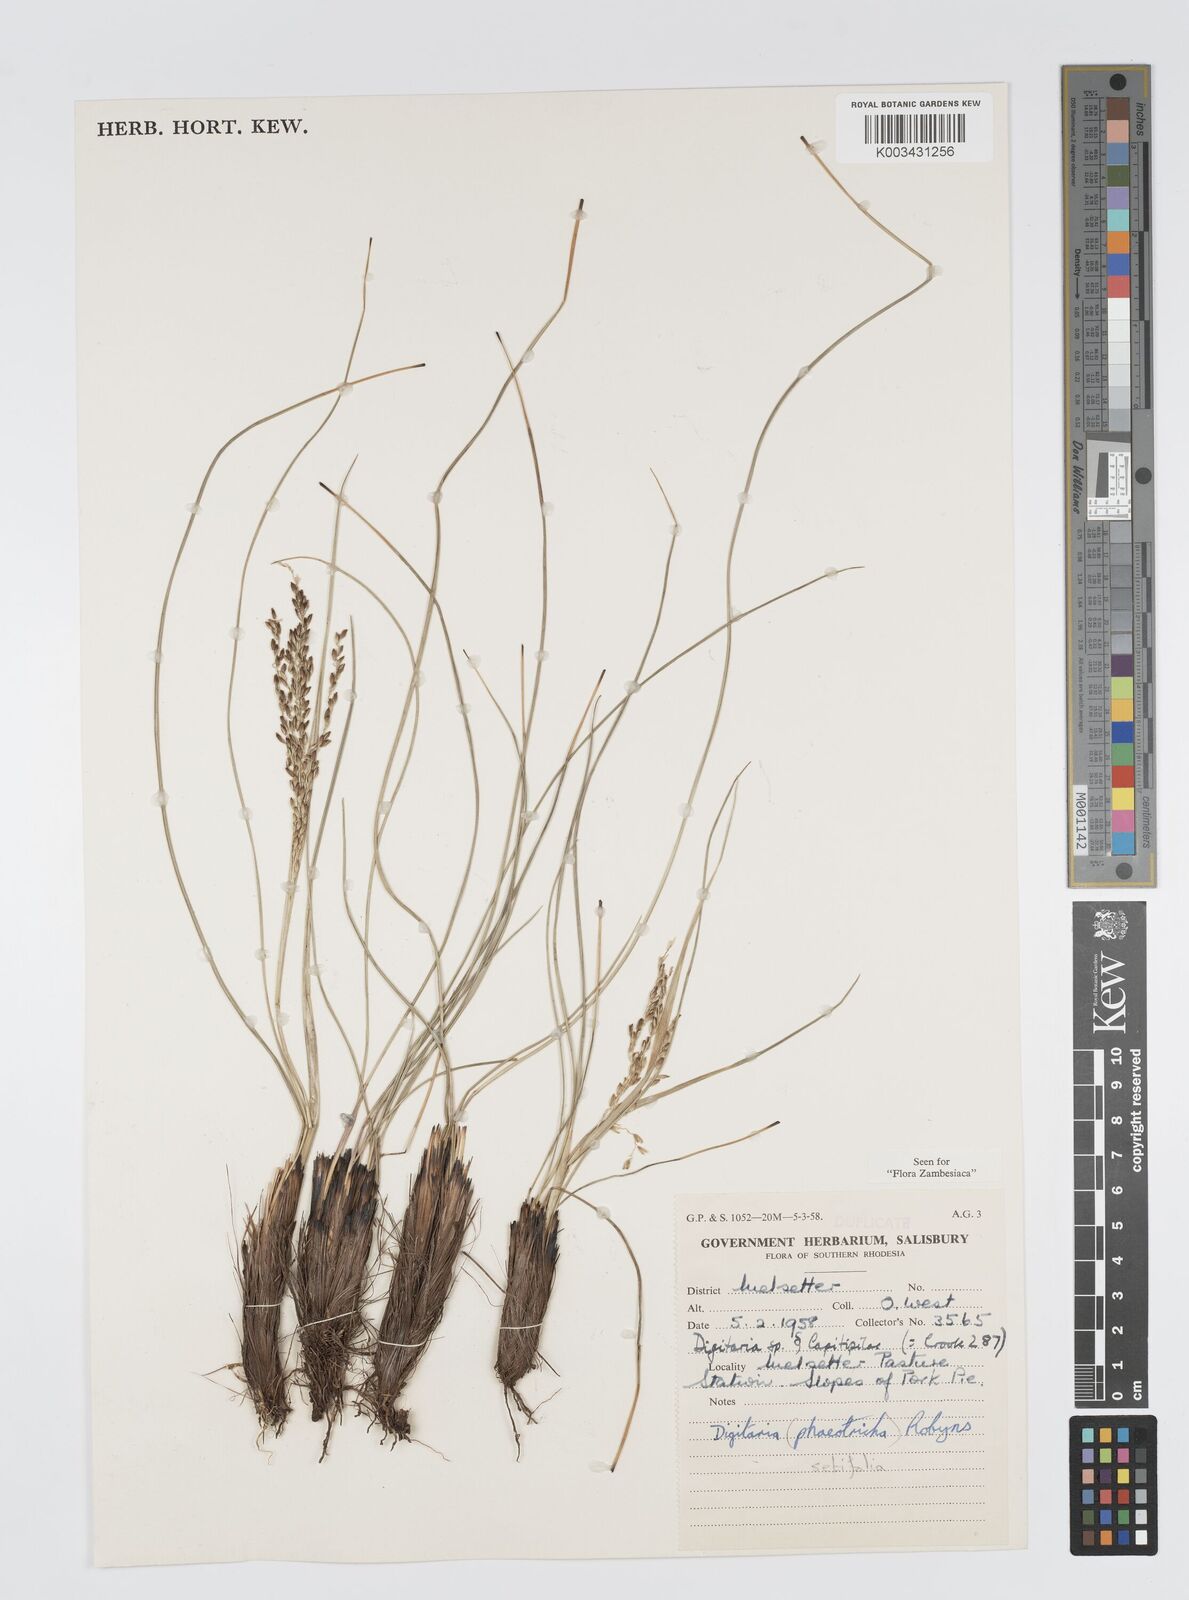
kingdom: Plantae
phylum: Tracheophyta
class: Liliopsida
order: Poales
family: Poaceae
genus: Digitaria
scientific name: Digitaria setifolia
